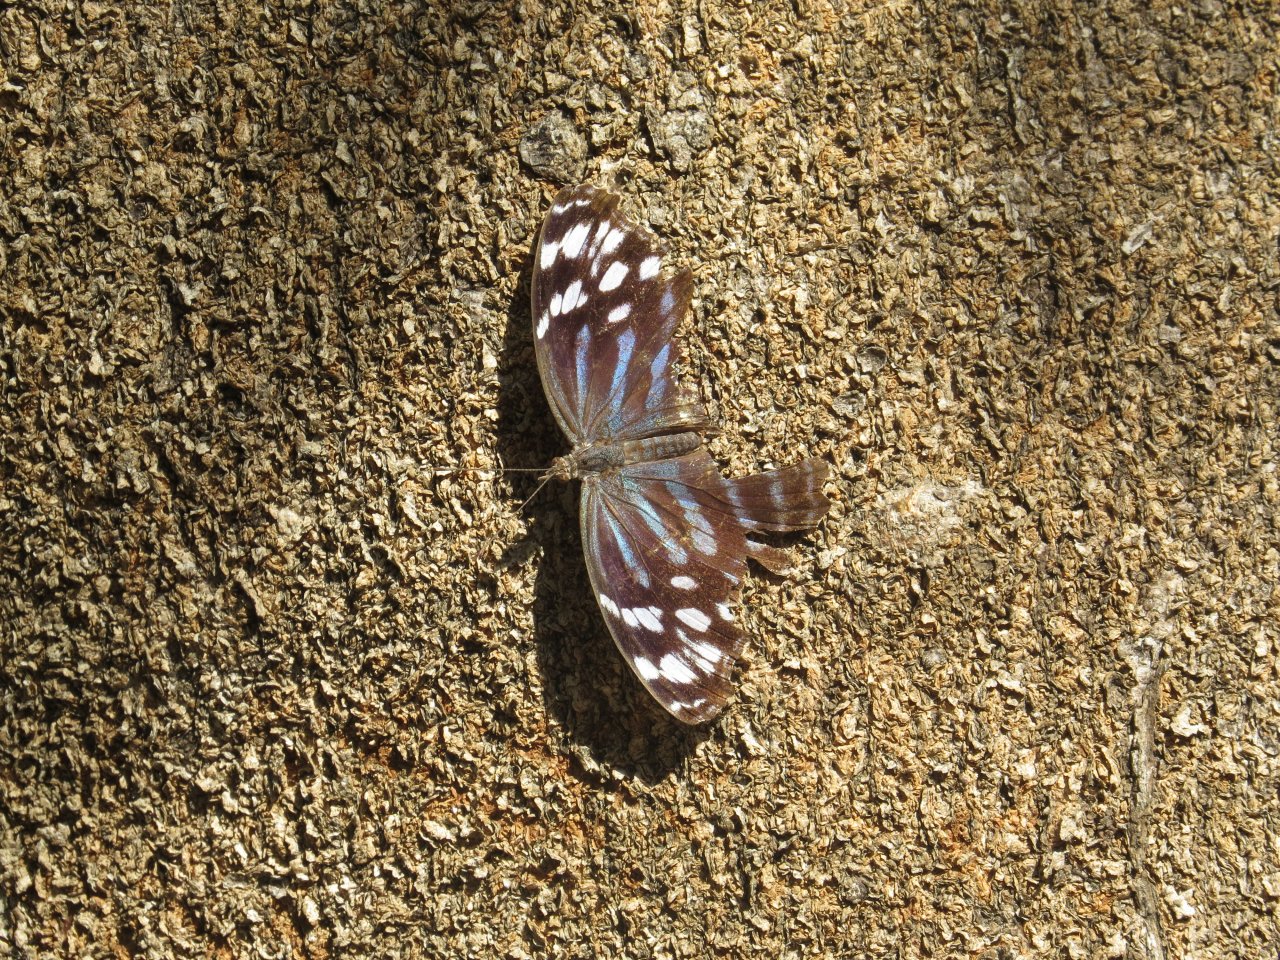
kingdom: Animalia
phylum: Arthropoda
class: Insecta
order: Lepidoptera
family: Nymphalidae
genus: Myscelia
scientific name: Myscelia ethusa
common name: Mexican Bluewing
